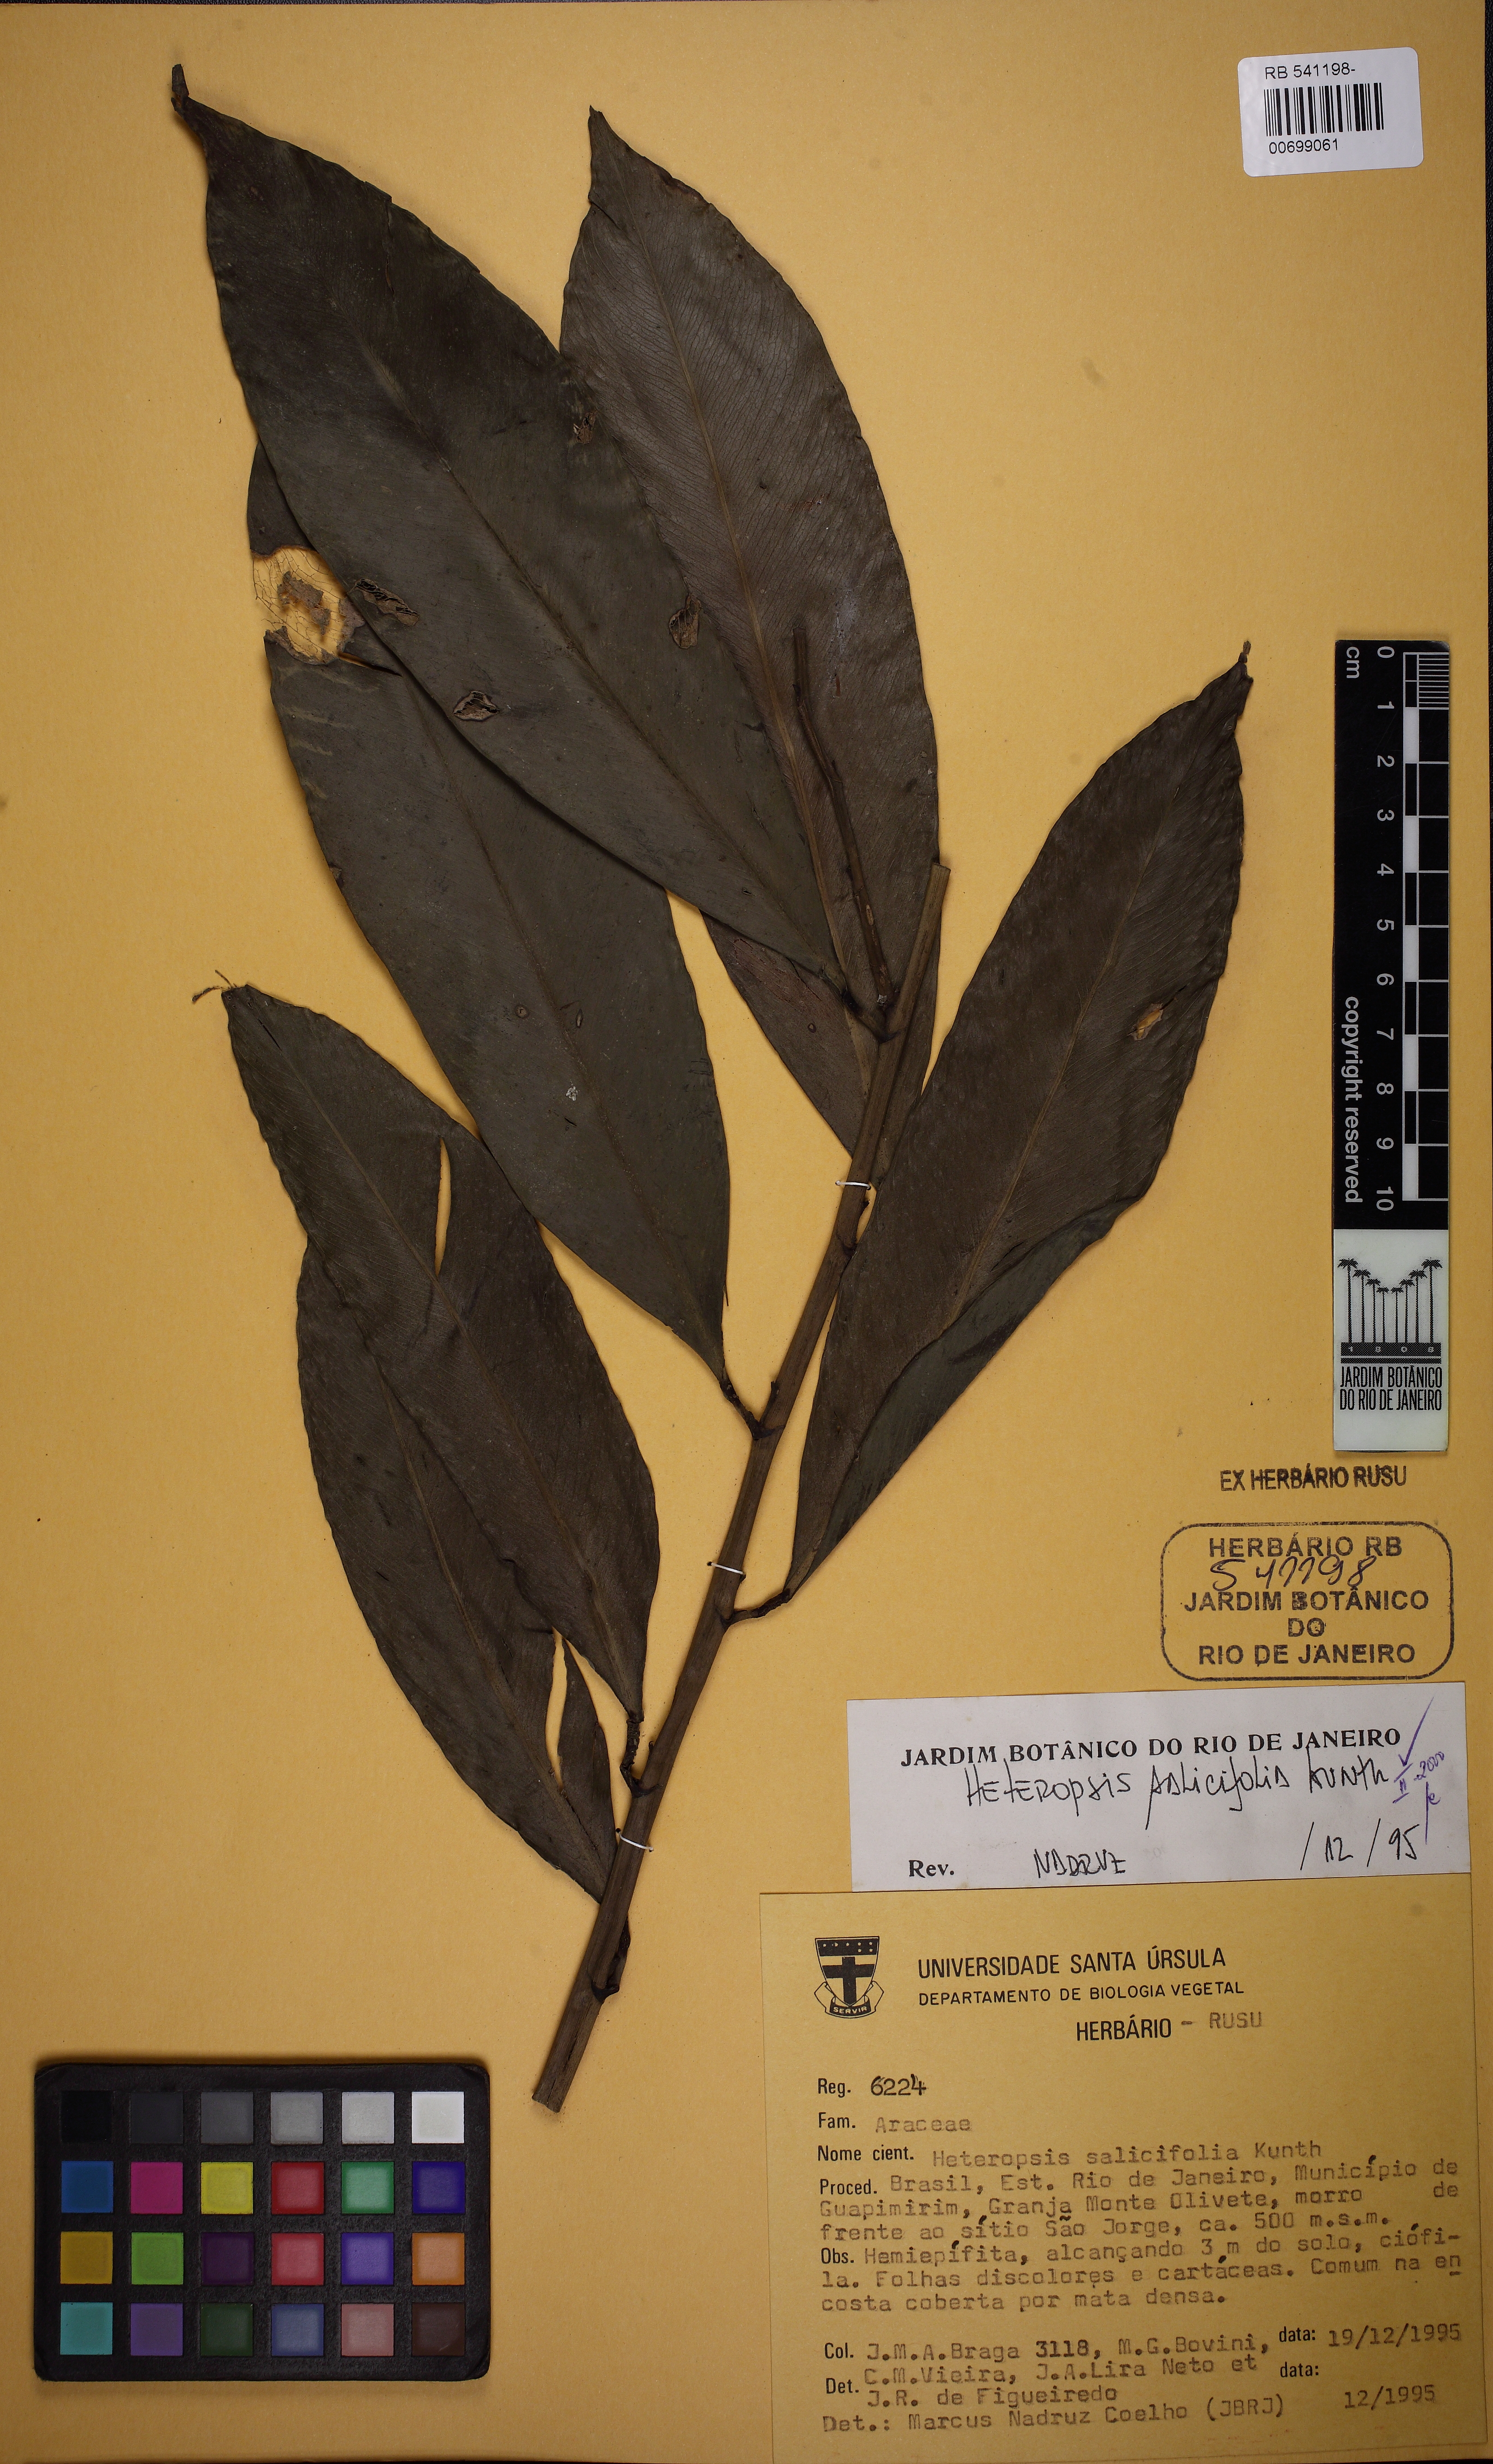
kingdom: Plantae
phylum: Tracheophyta
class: Liliopsida
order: Alismatales
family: Araceae
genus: Heteropsis
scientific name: Heteropsis salicifolia
